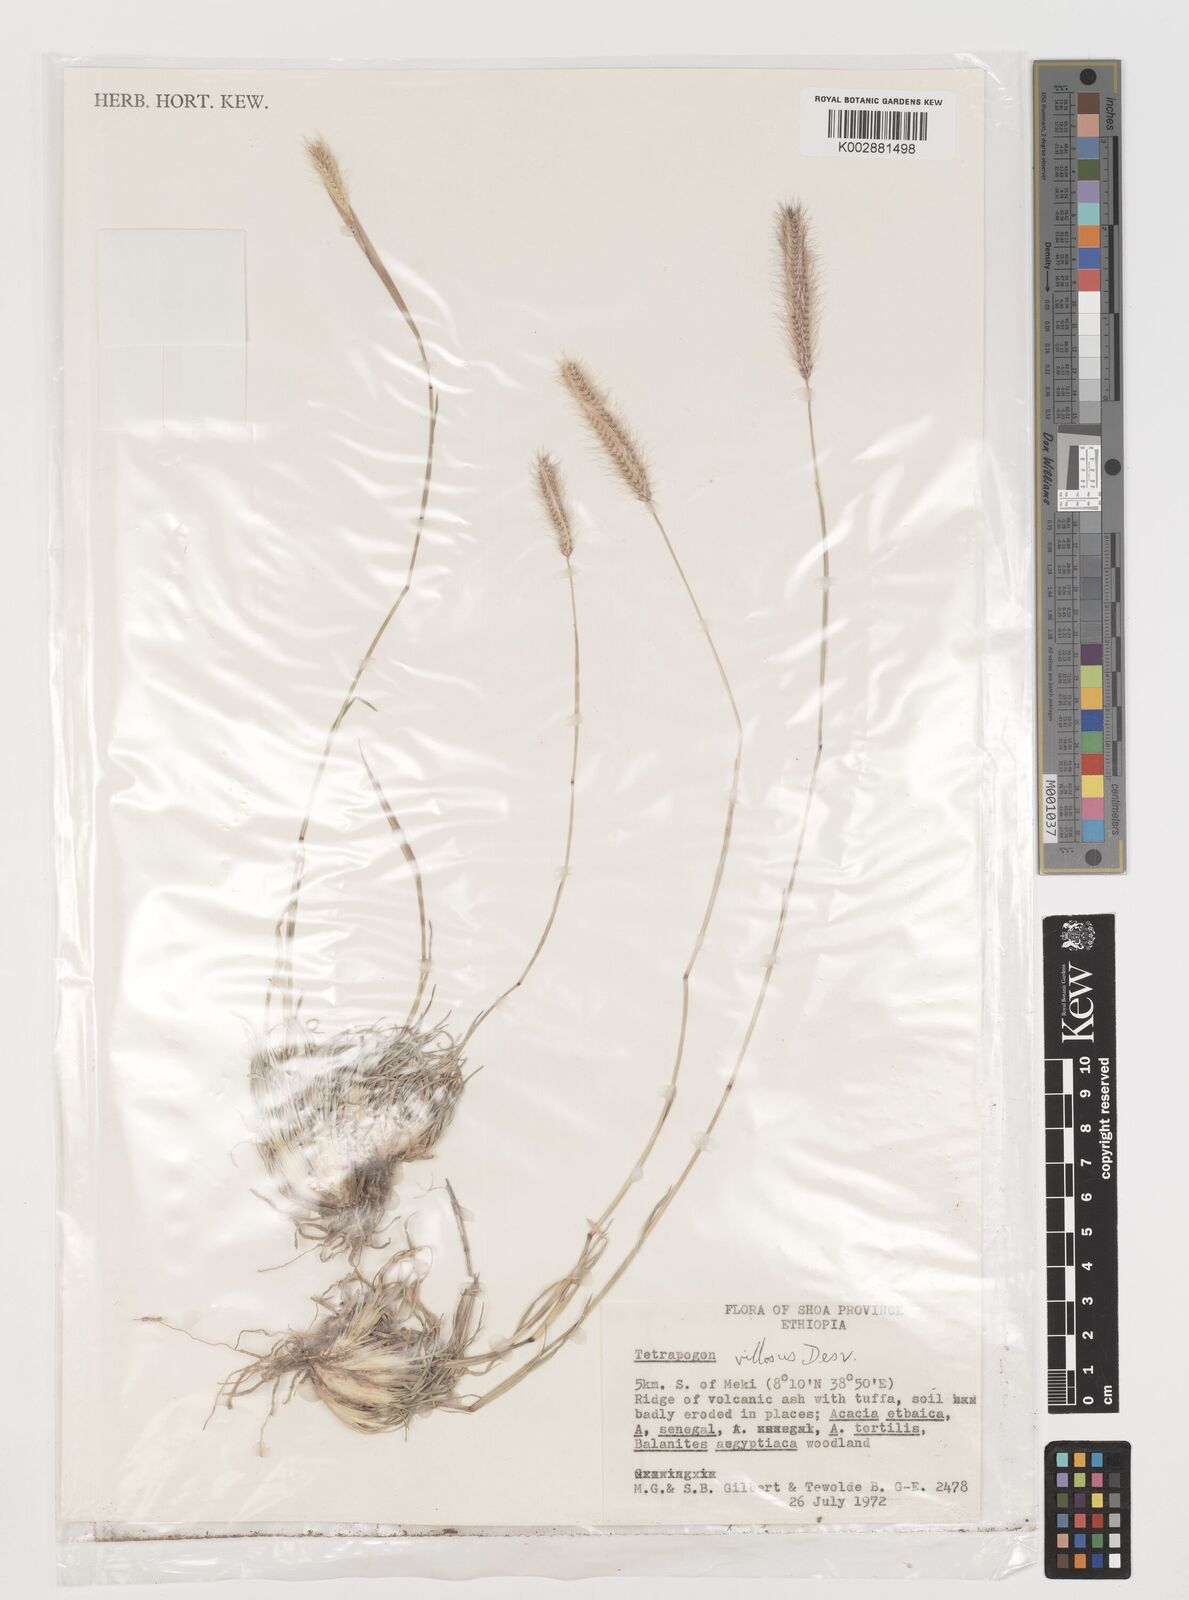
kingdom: Plantae
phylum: Tracheophyta
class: Liliopsida
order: Poales
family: Poaceae
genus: Tetrapogon
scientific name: Tetrapogon villosus
